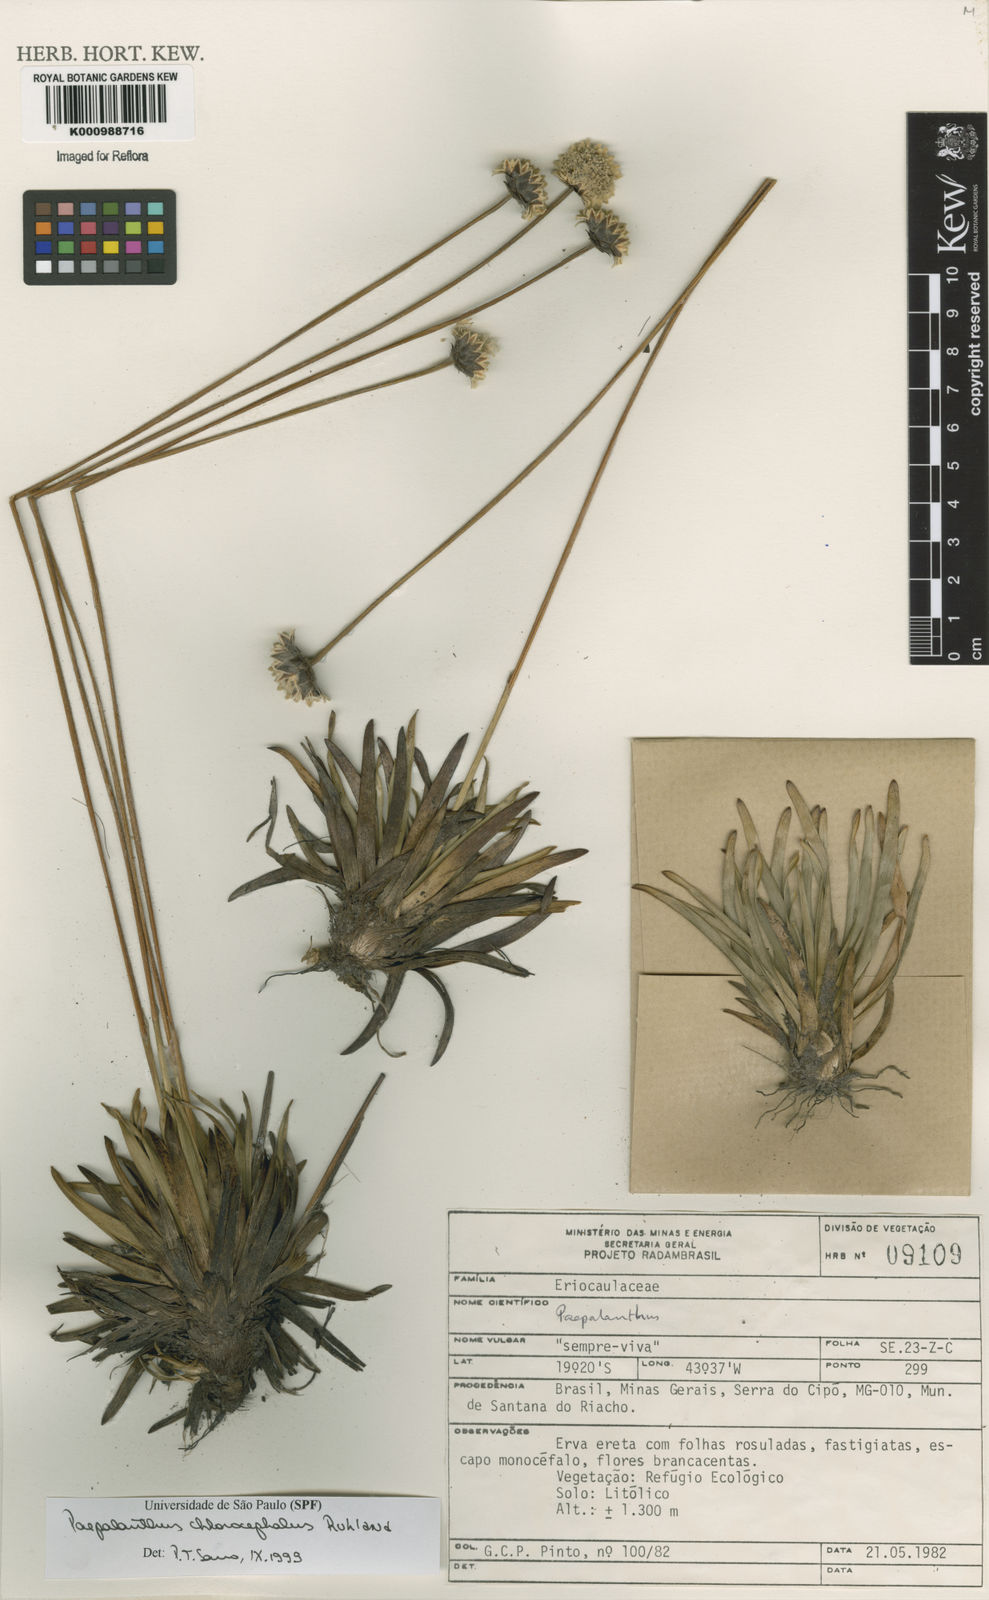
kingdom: Plantae
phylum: Tracheophyta
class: Liliopsida
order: Poales
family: Eriocaulaceae
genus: Paepalanthus
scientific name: Paepalanthus chlorocephalus
